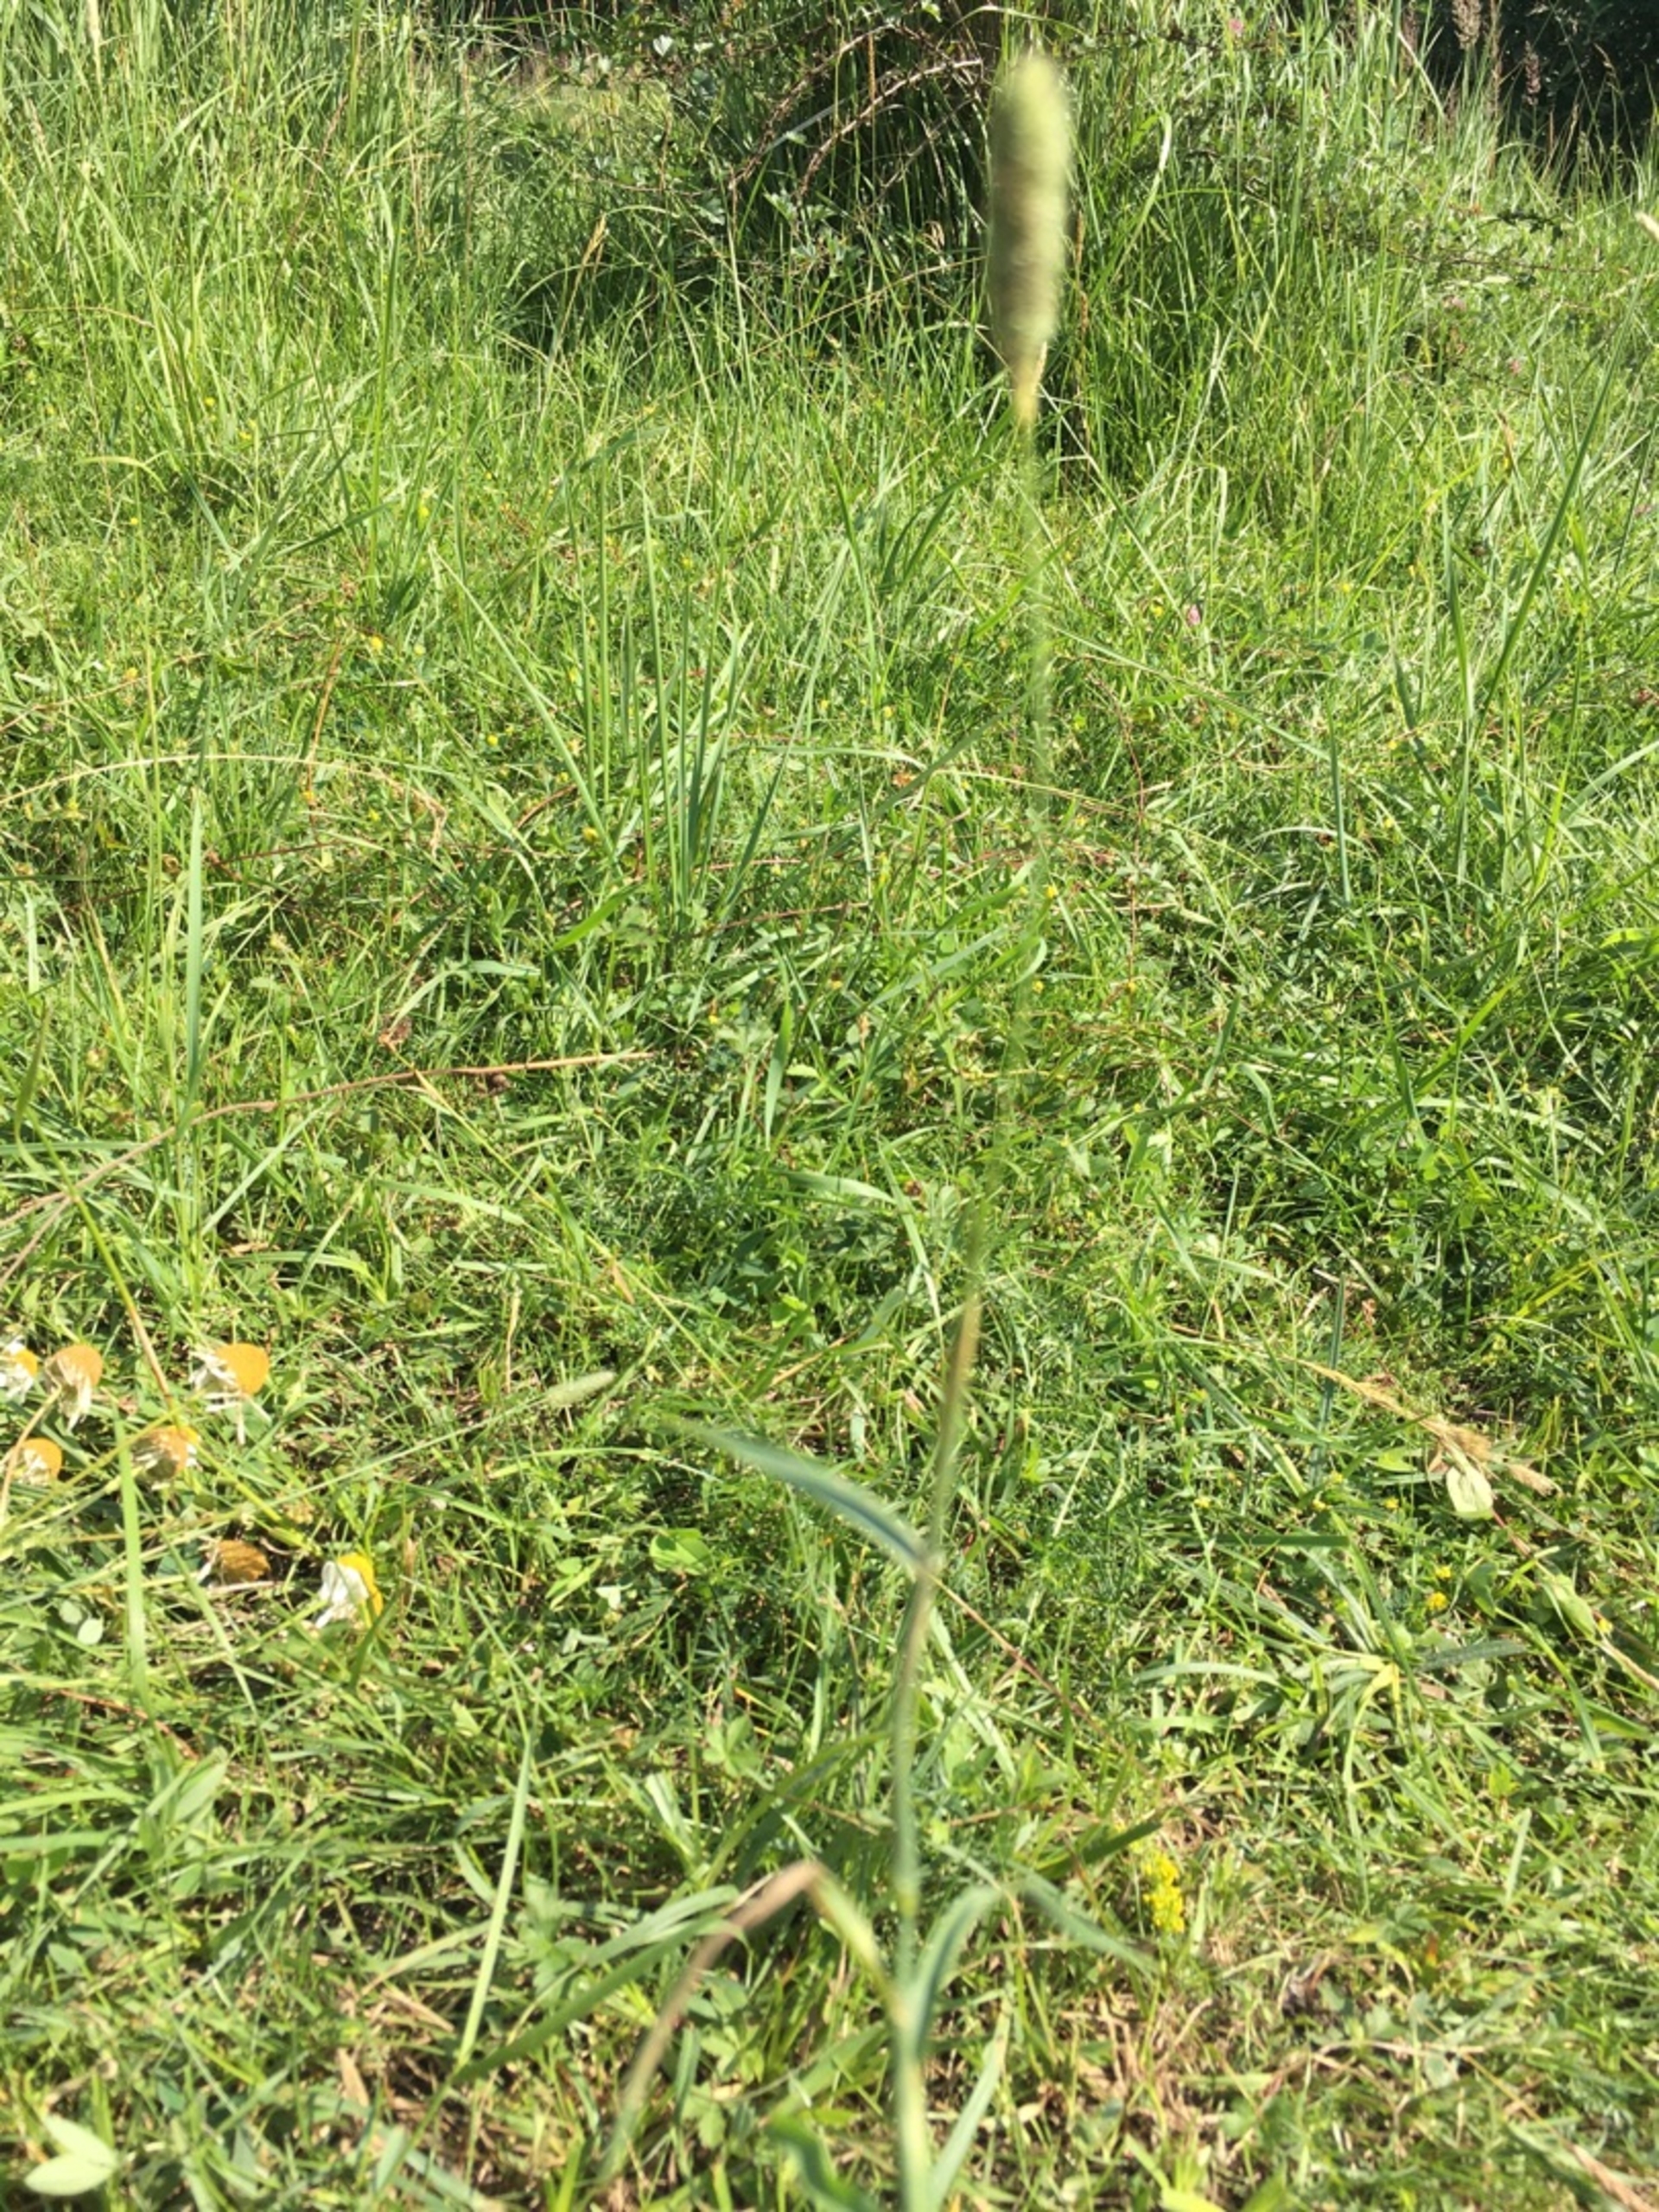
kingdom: Plantae
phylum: Tracheophyta
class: Liliopsida
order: Poales
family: Poaceae
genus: Phleum
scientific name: Phleum pratense
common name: Eng-rottehale
